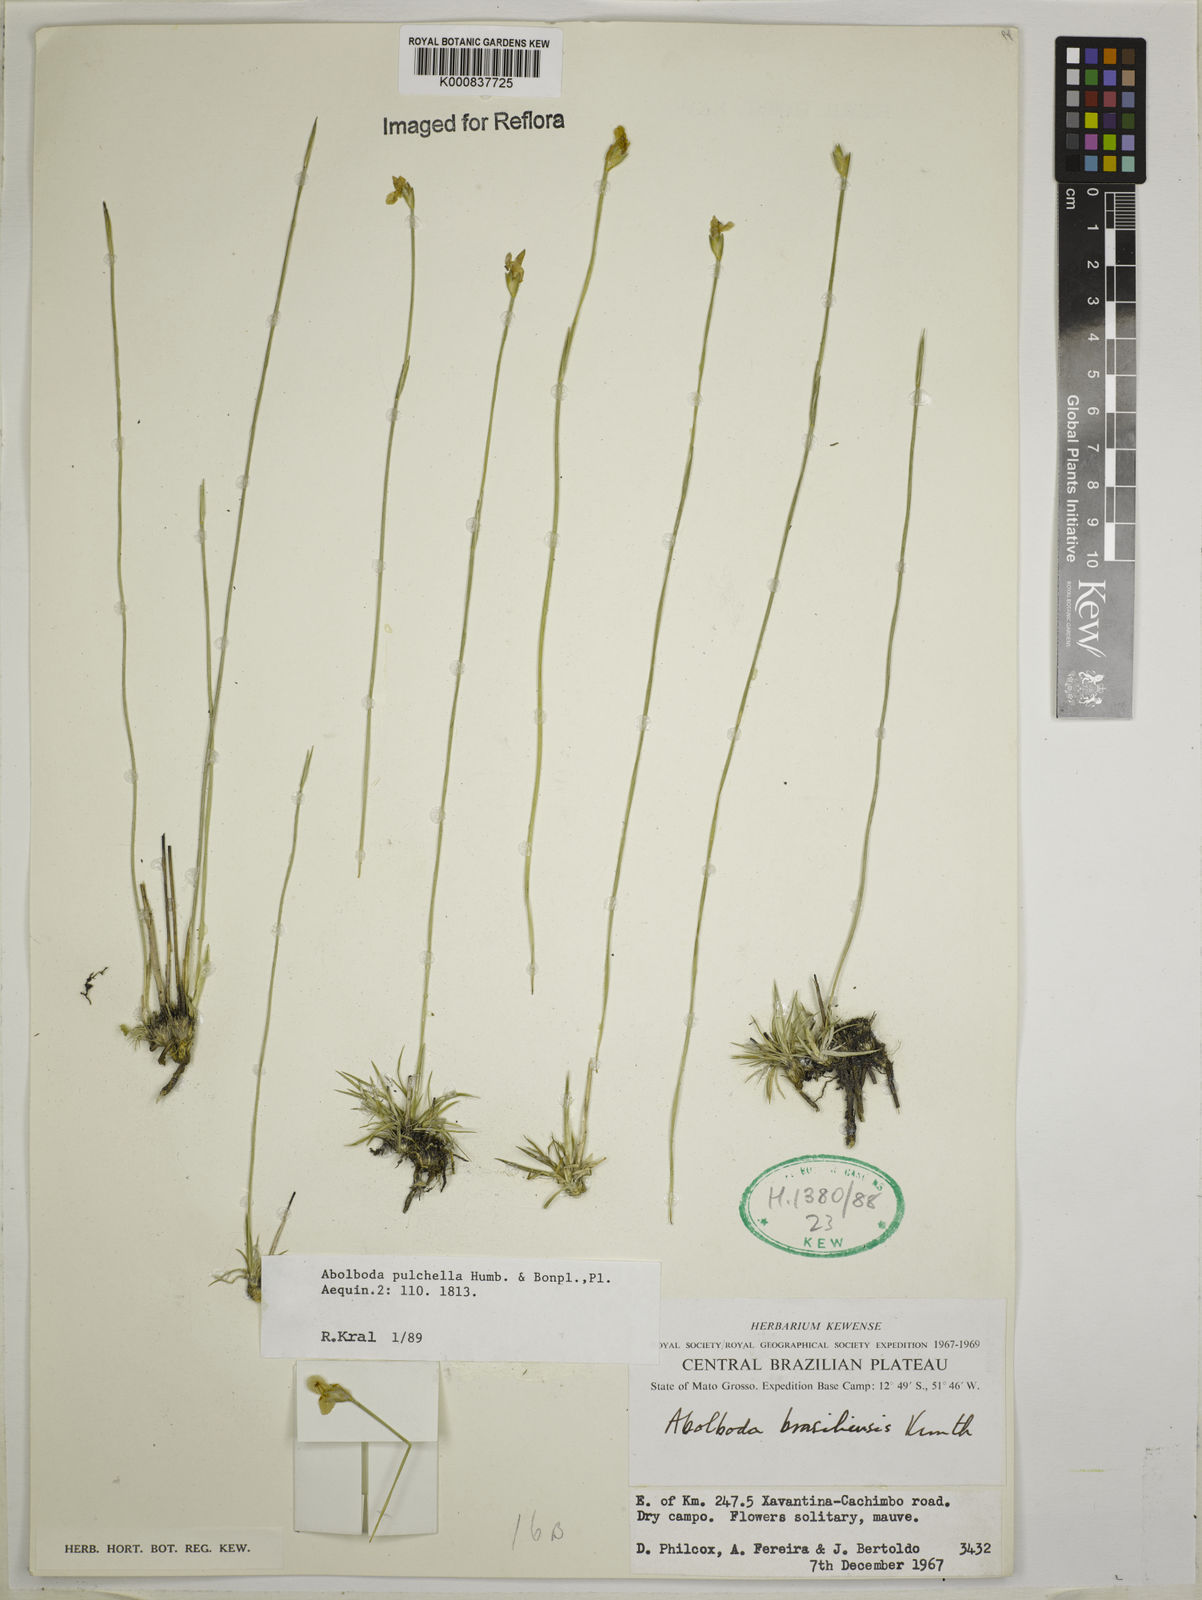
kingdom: Plantae
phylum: Tracheophyta
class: Liliopsida
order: Poales
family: Xyridaceae
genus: Abolboda
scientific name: Abolboda pulchella
